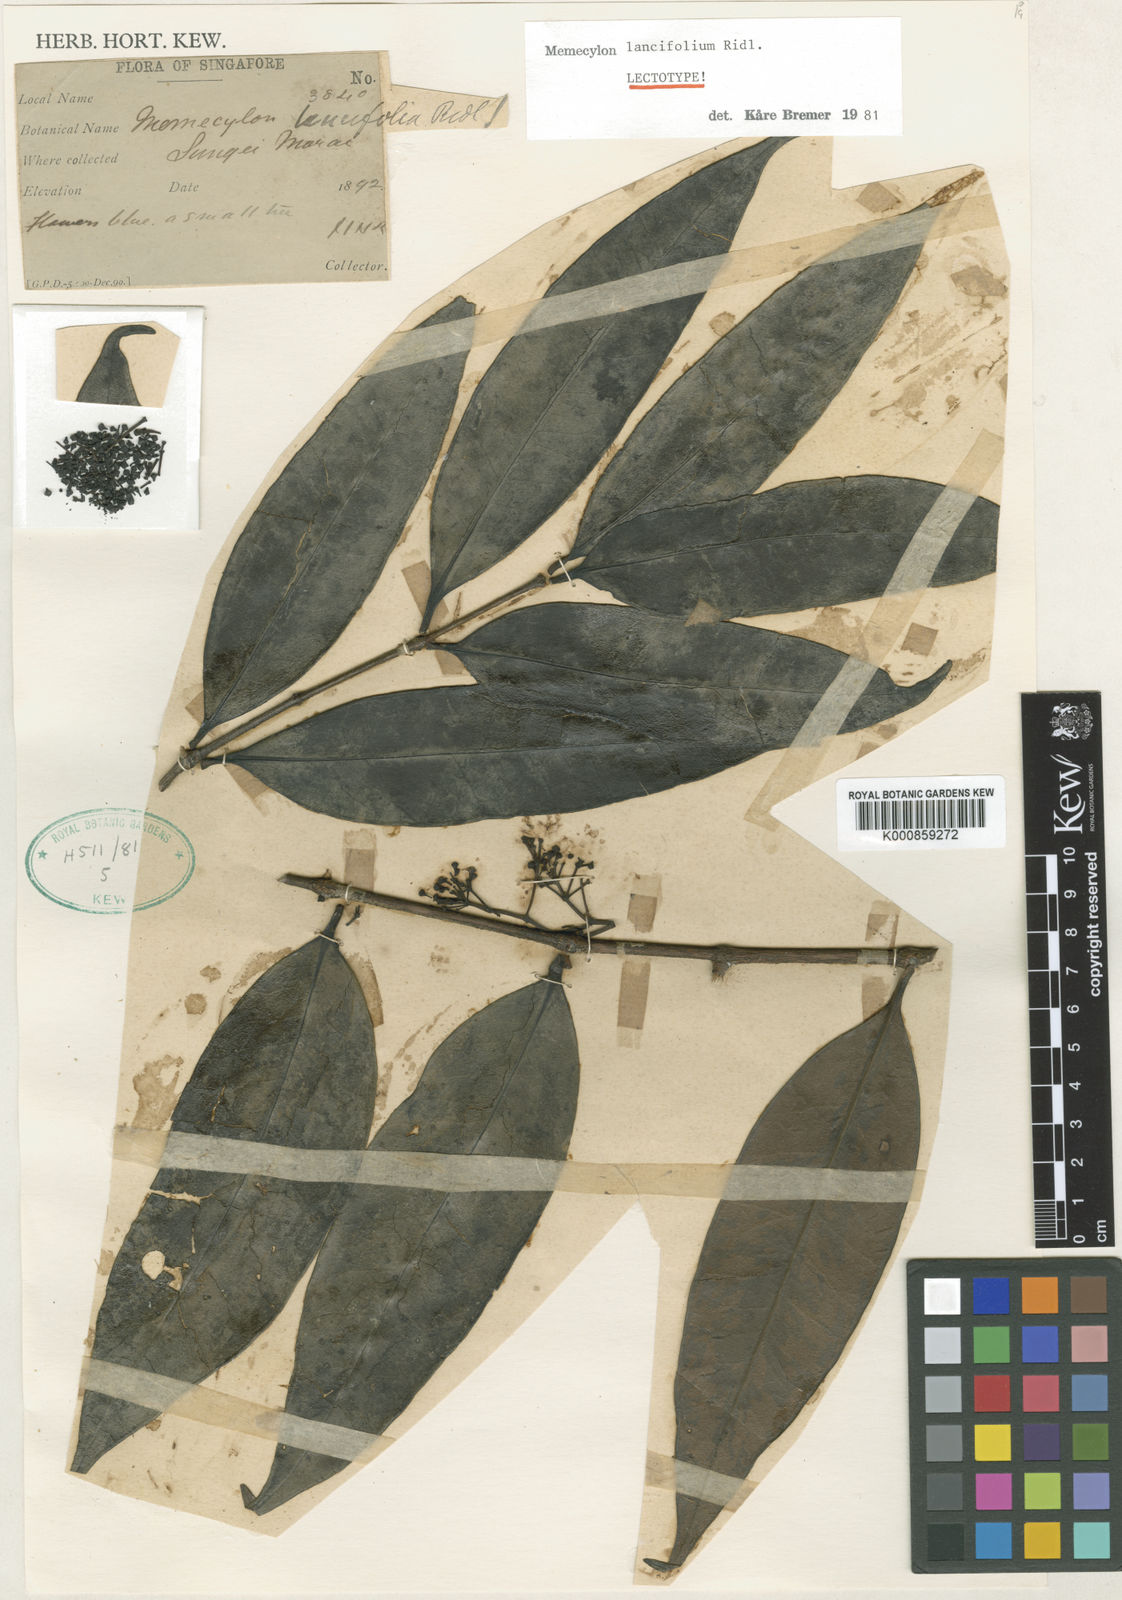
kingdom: Plantae
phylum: Tracheophyta
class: Magnoliopsida
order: Myrtales
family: Melastomataceae
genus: Memecylon
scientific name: Memecylon lancifolium
